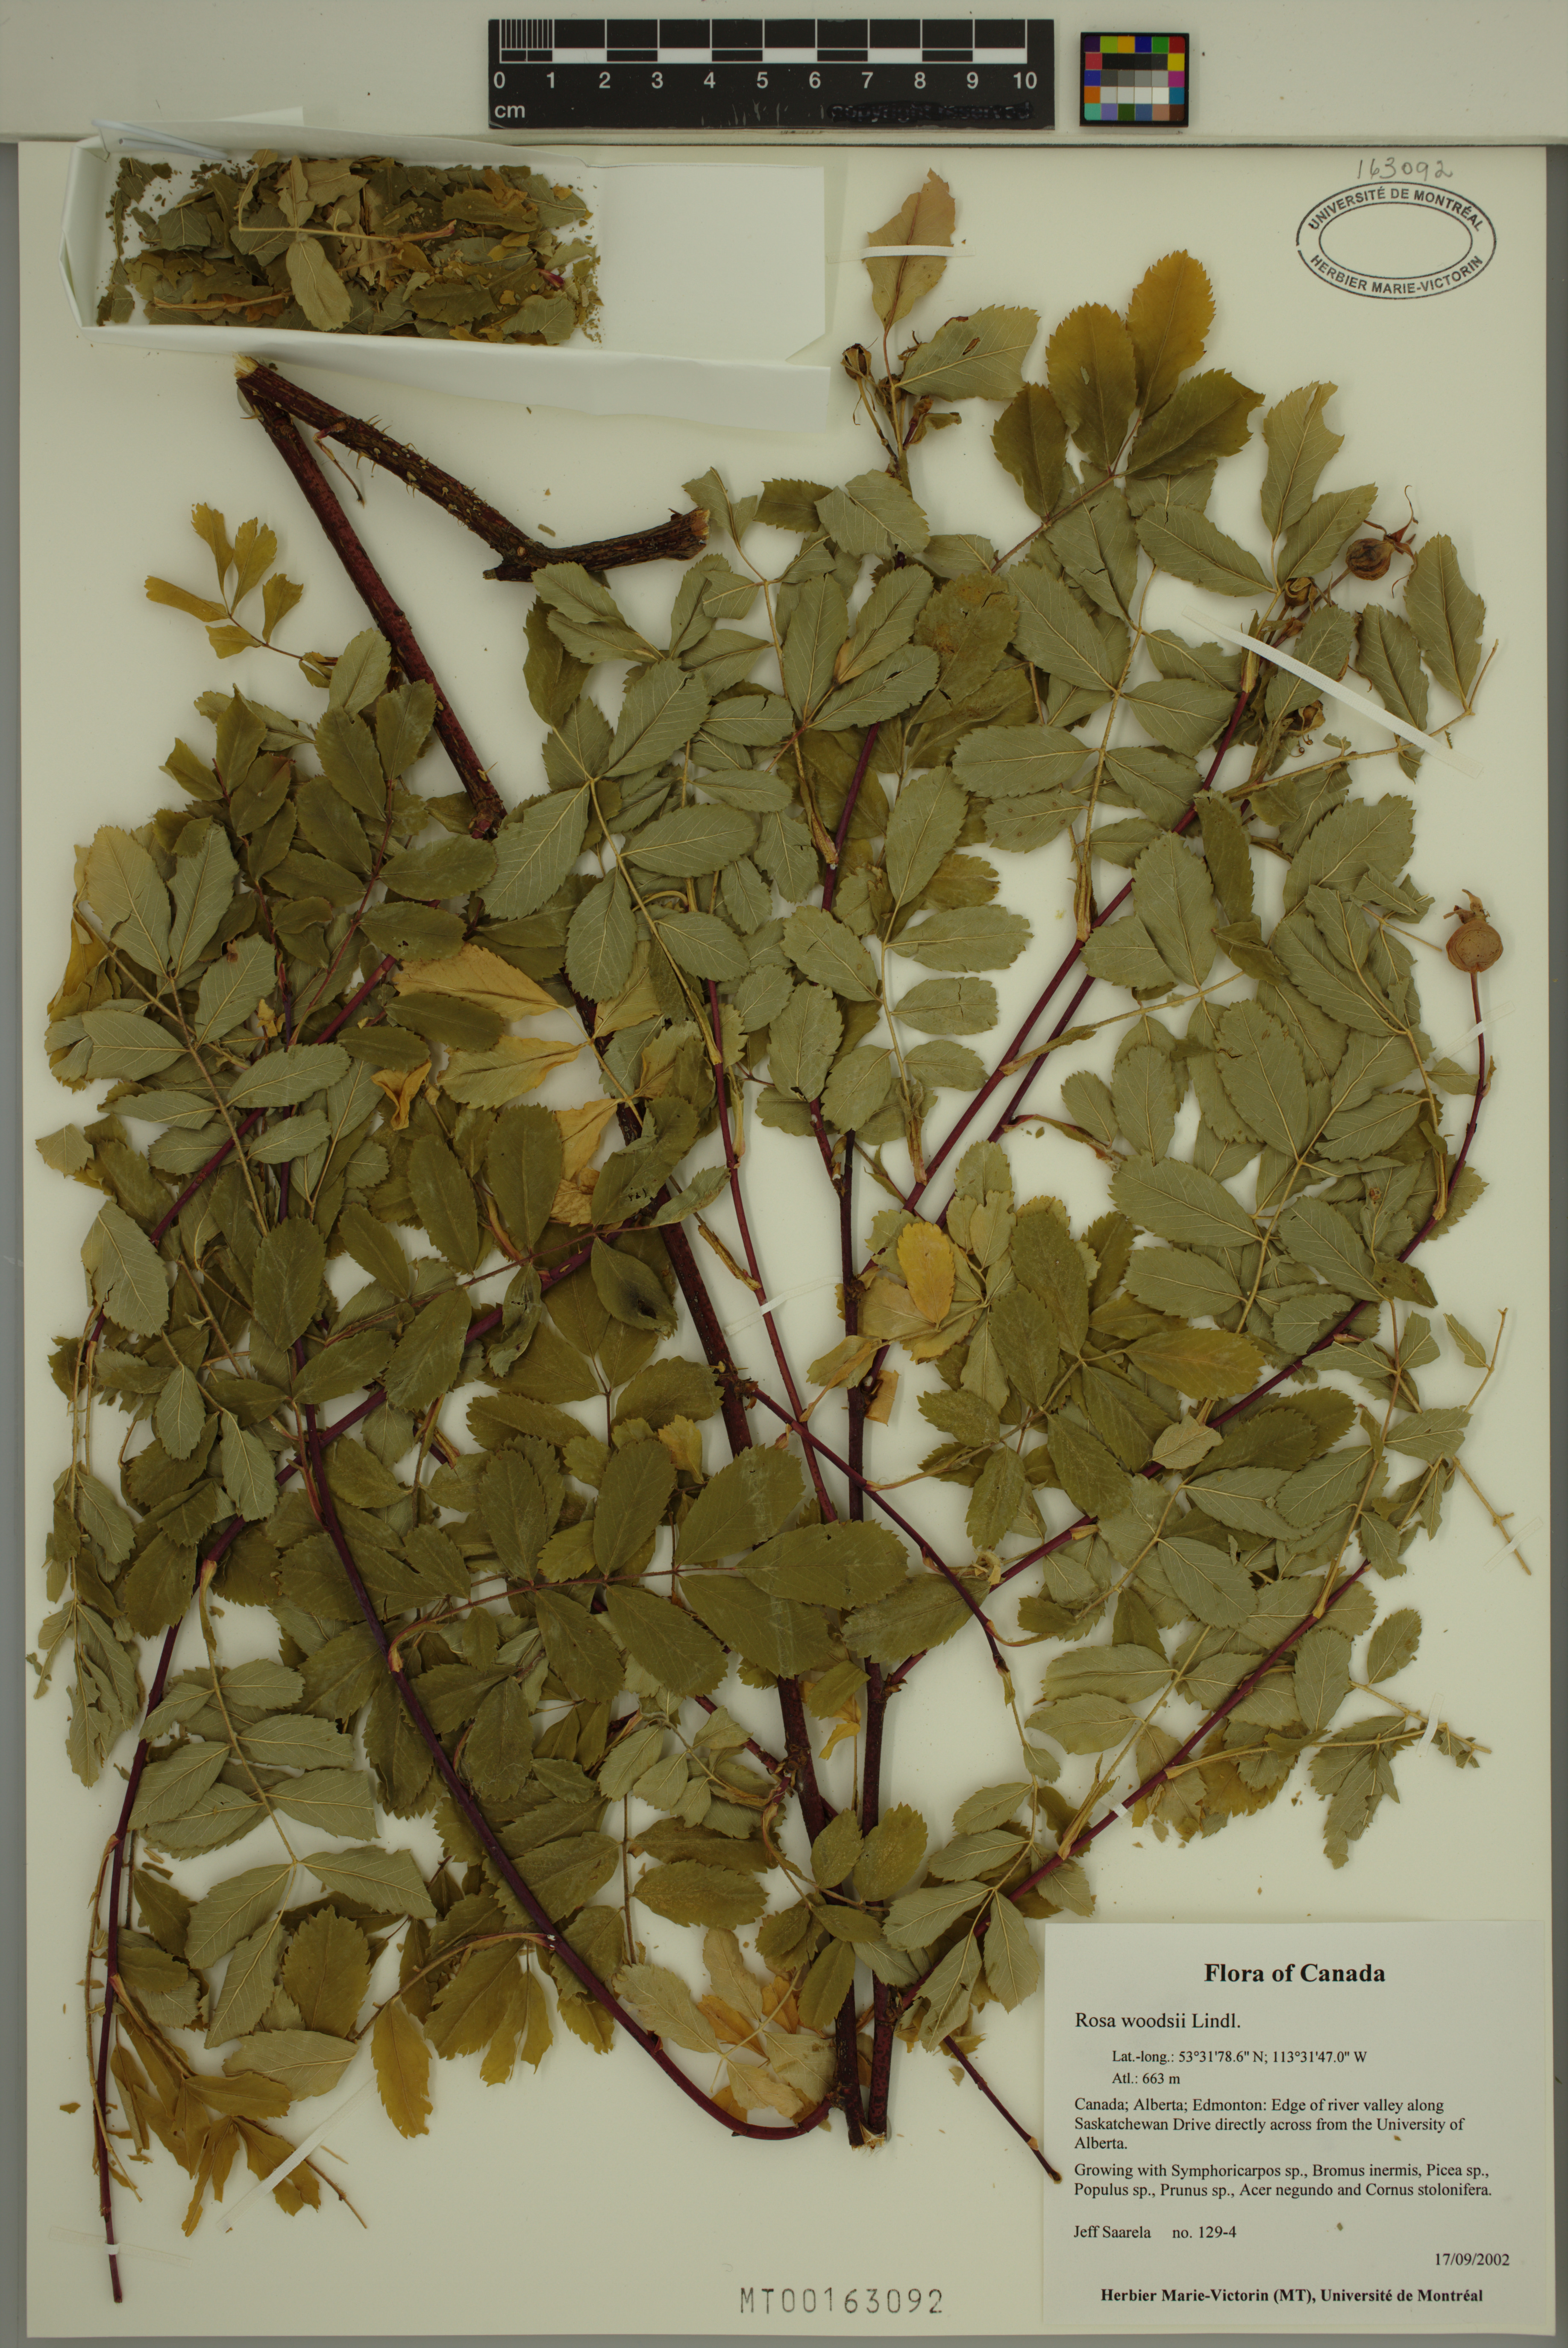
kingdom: Plantae
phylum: Tracheophyta
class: Magnoliopsida
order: Rosales
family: Rosaceae
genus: Rosa
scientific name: Rosa woodsii
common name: Woods's rose
